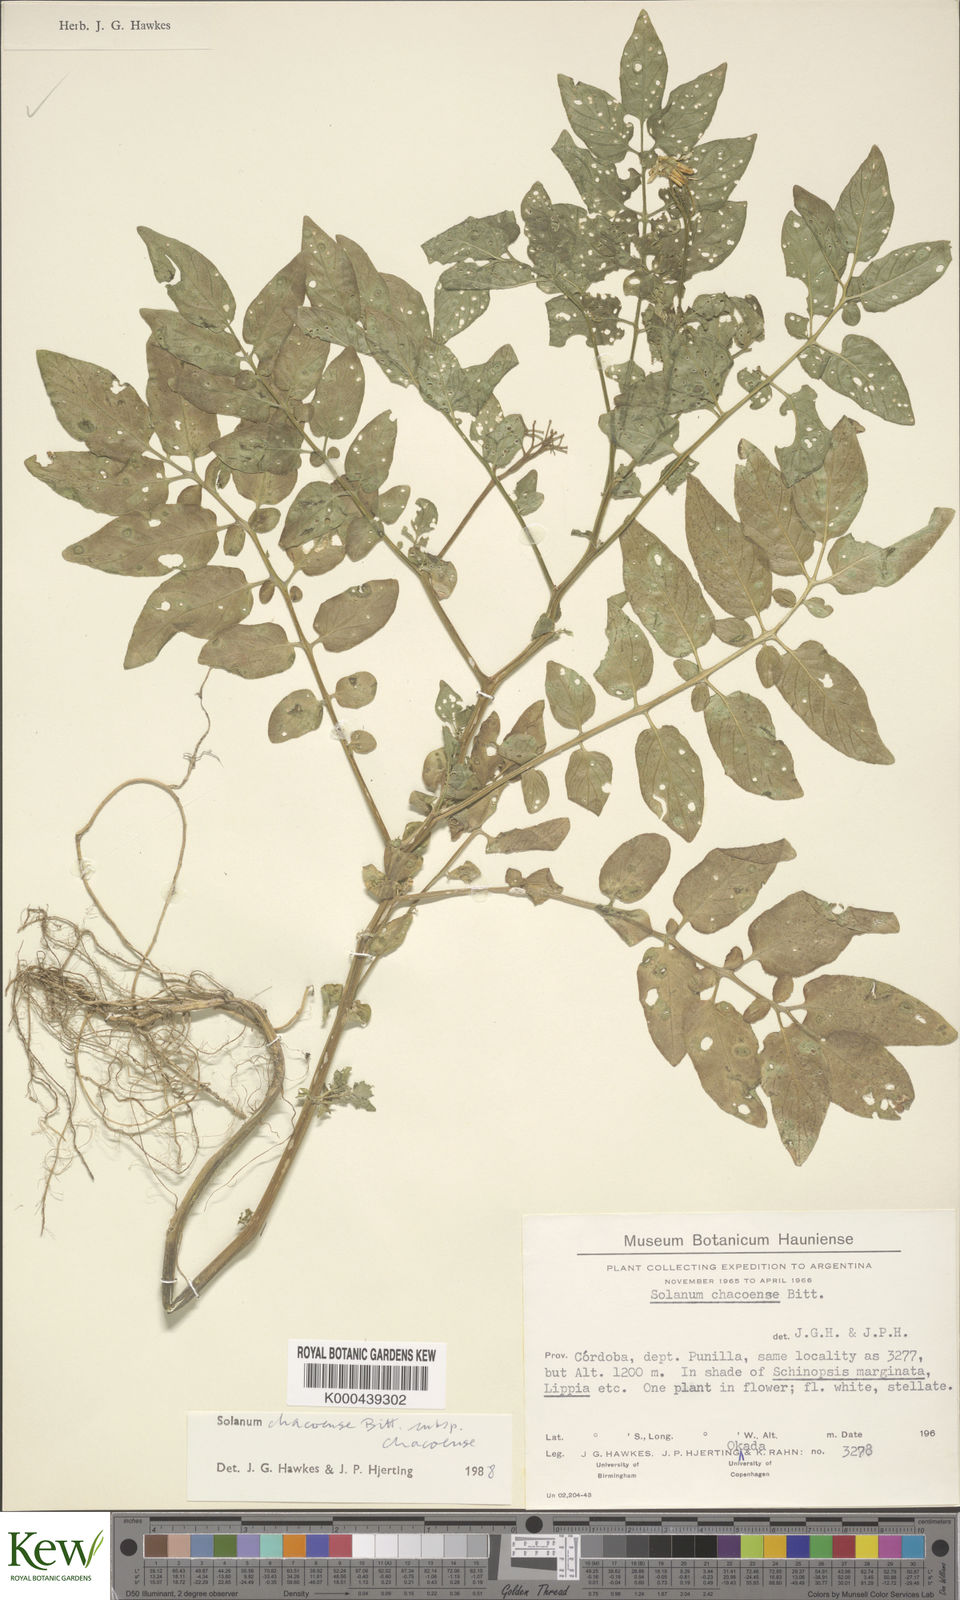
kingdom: Plantae
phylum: Tracheophyta
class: Magnoliopsida
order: Solanales
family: Solanaceae
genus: Solanum
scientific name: Solanum chacoense
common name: Chaco potato
